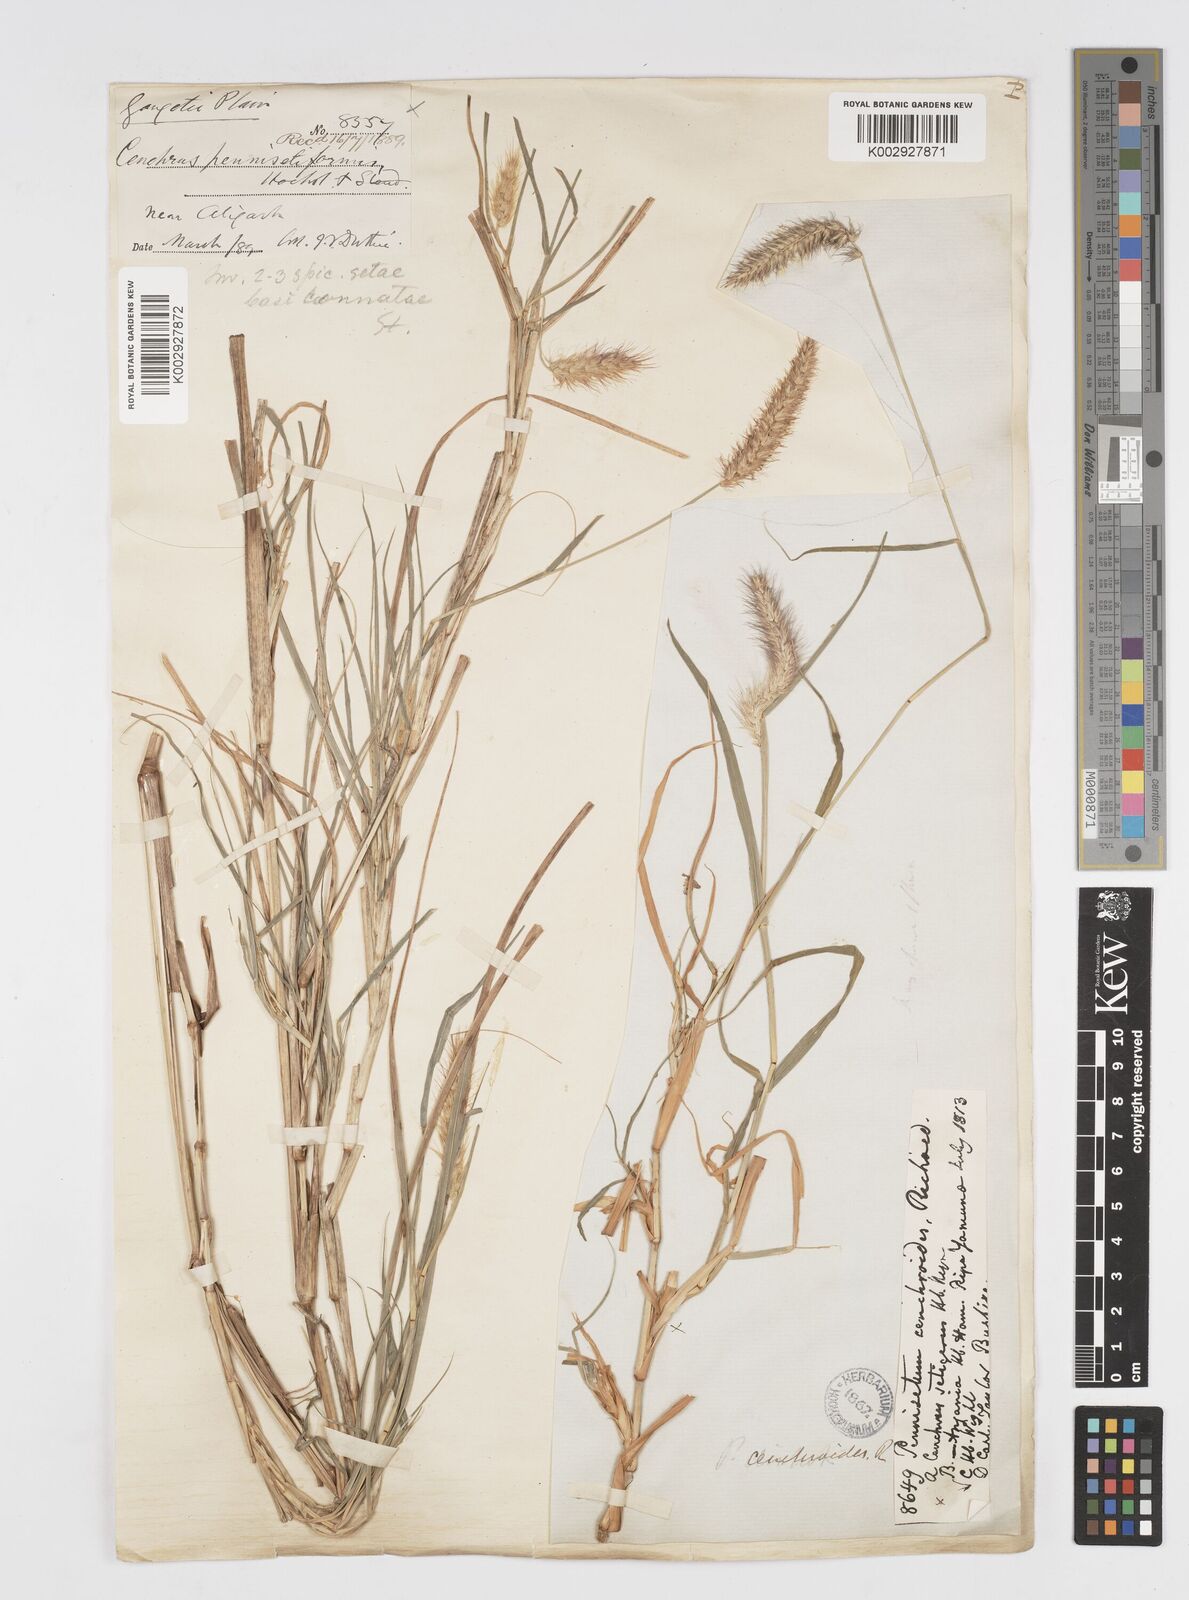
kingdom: Plantae
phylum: Tracheophyta
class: Liliopsida
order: Poales
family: Poaceae
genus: Cenchrus
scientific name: Cenchrus ciliaris
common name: Buffelgrass
